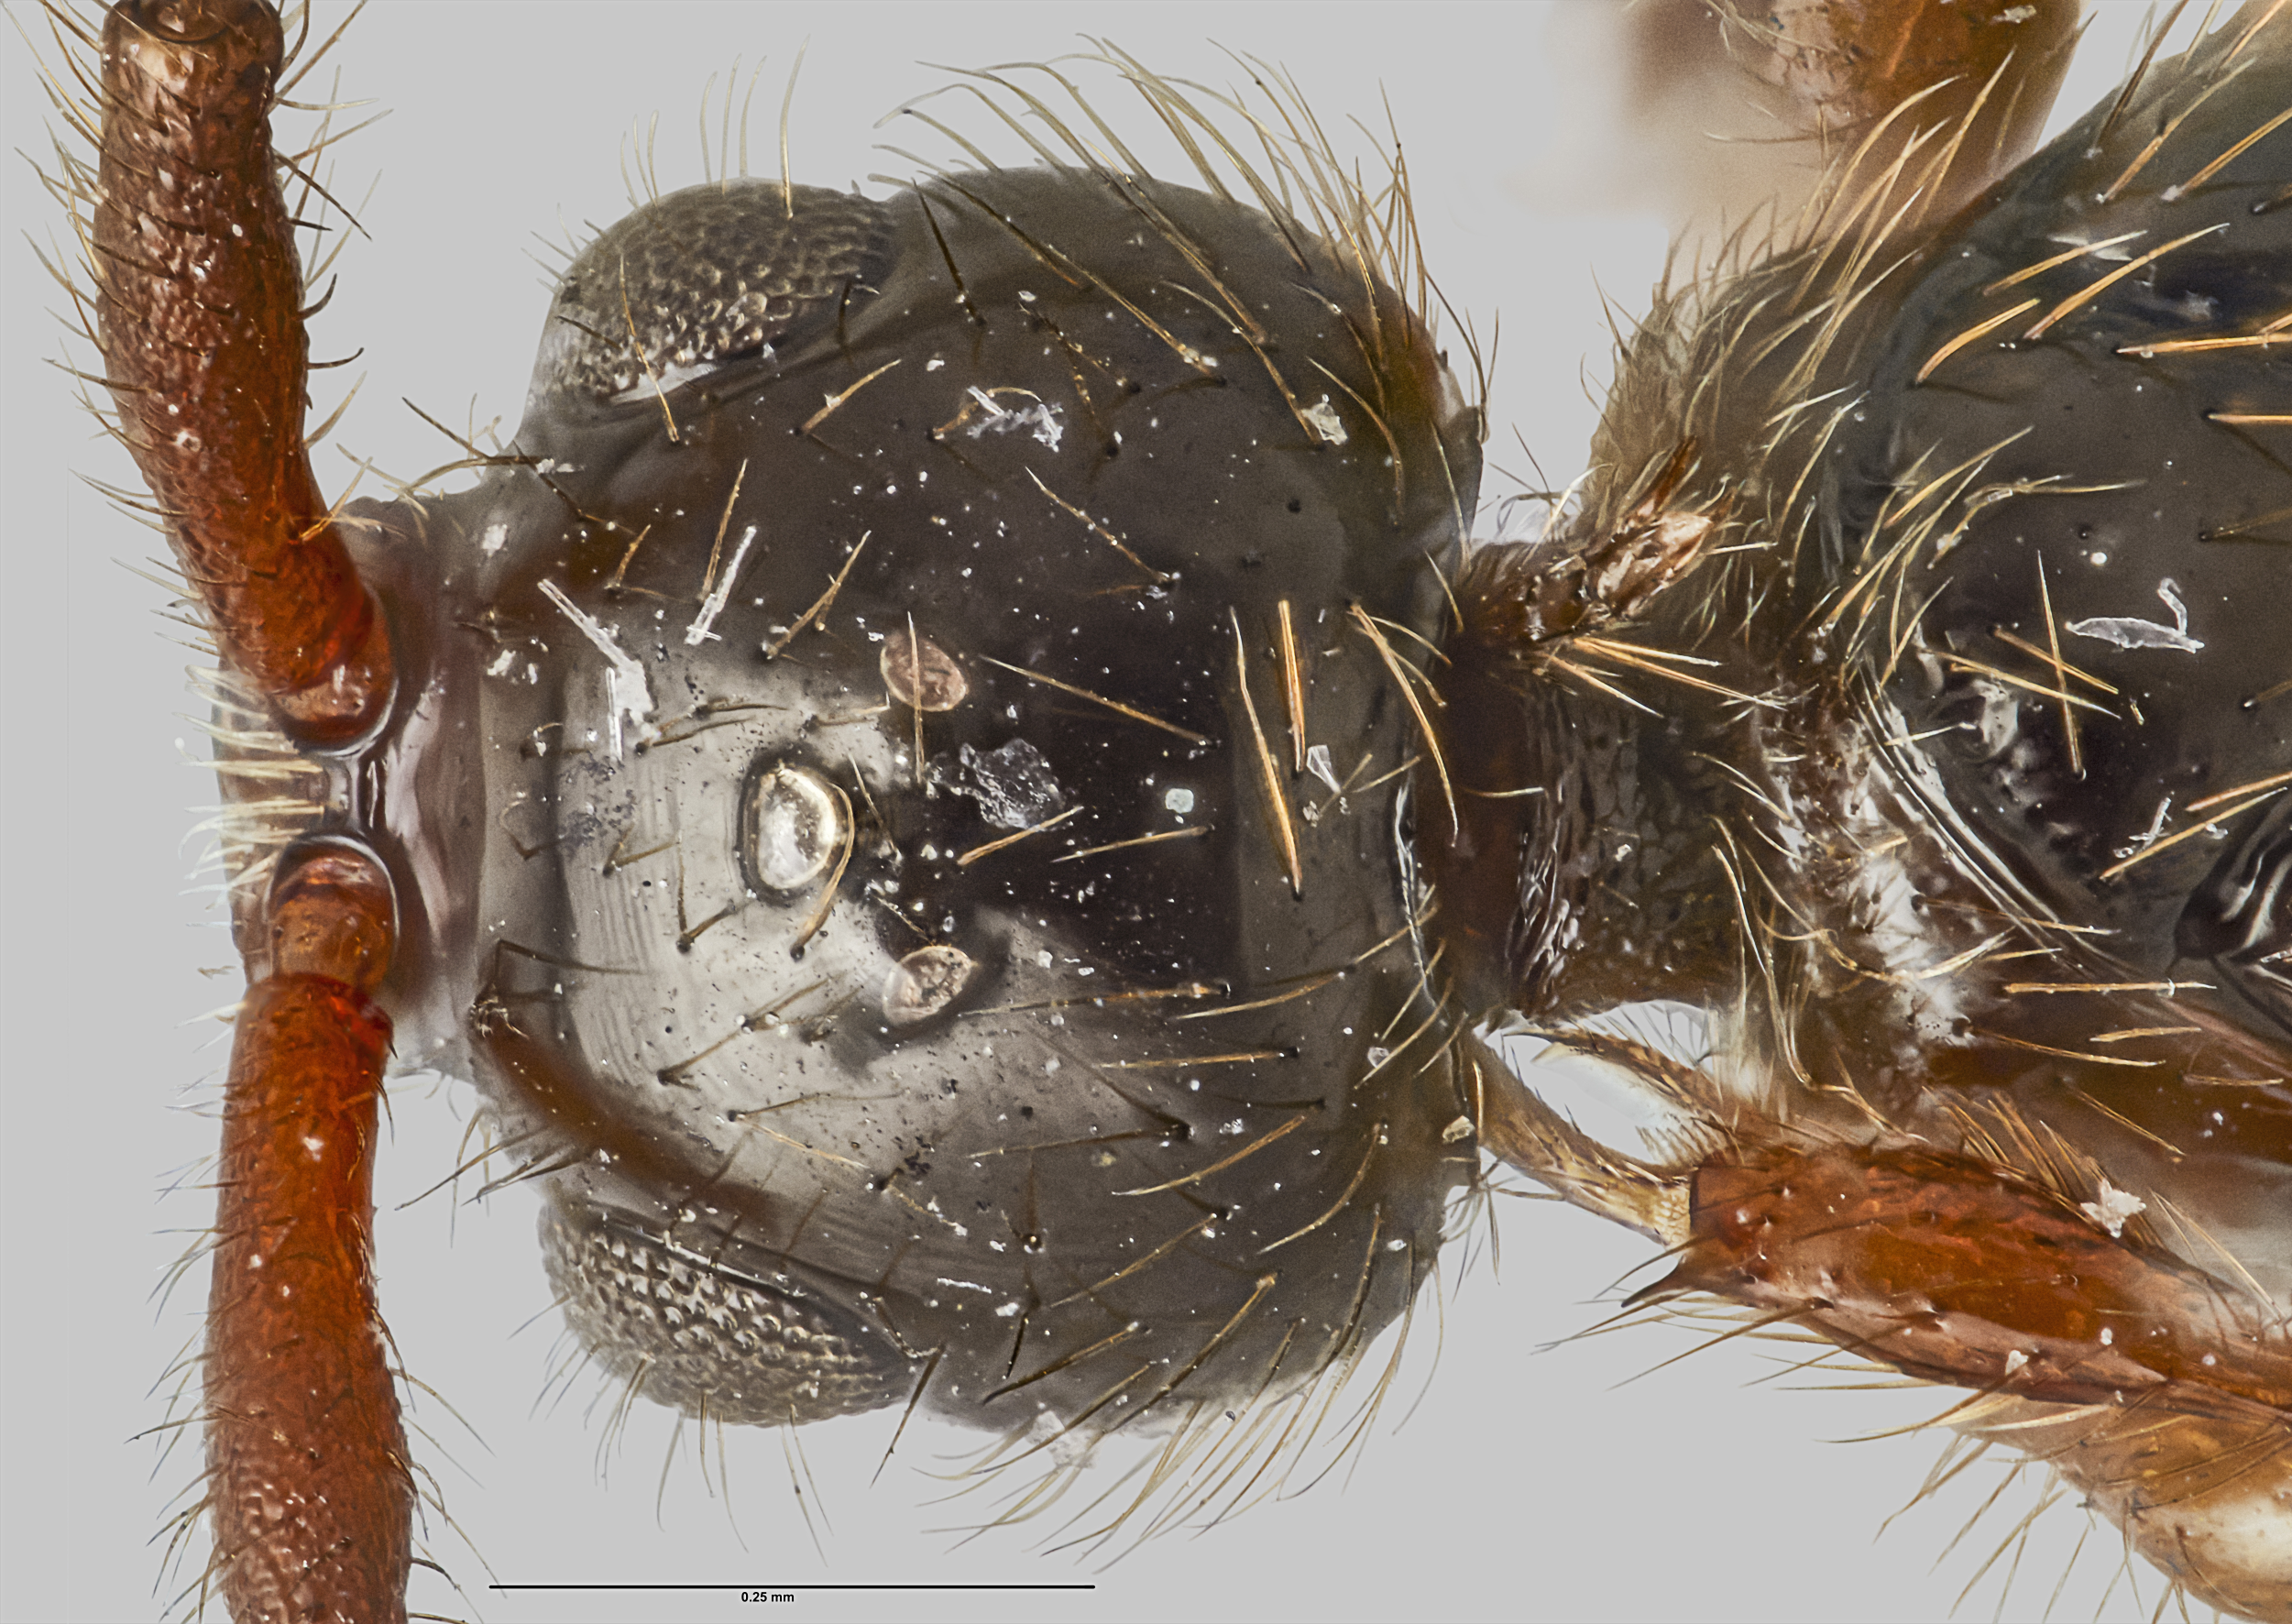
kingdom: Animalia
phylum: Arthropoda
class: Insecta
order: Hymenoptera
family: Diapriidae
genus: Idiotypa
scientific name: Idiotypa
